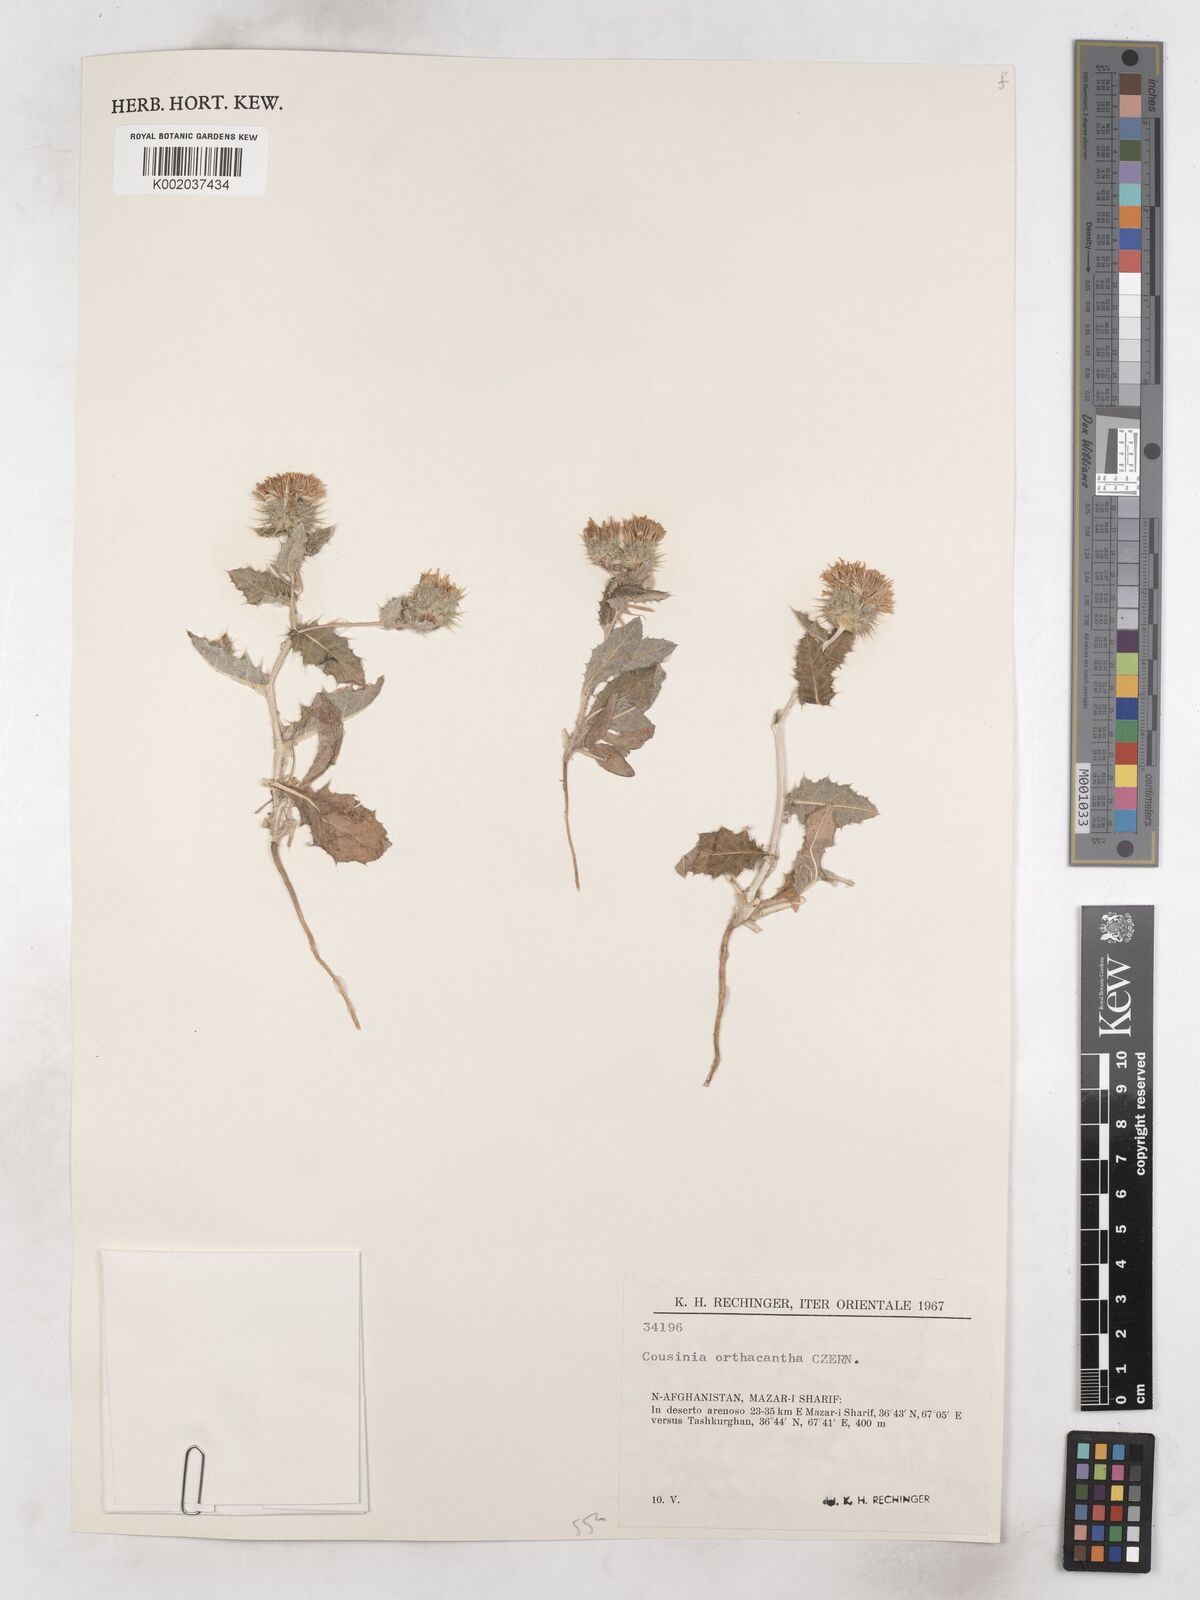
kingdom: Plantae
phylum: Tracheophyta
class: Magnoliopsida
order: Asterales
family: Asteraceae
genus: Cousinia
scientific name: Cousinia orthacantha
